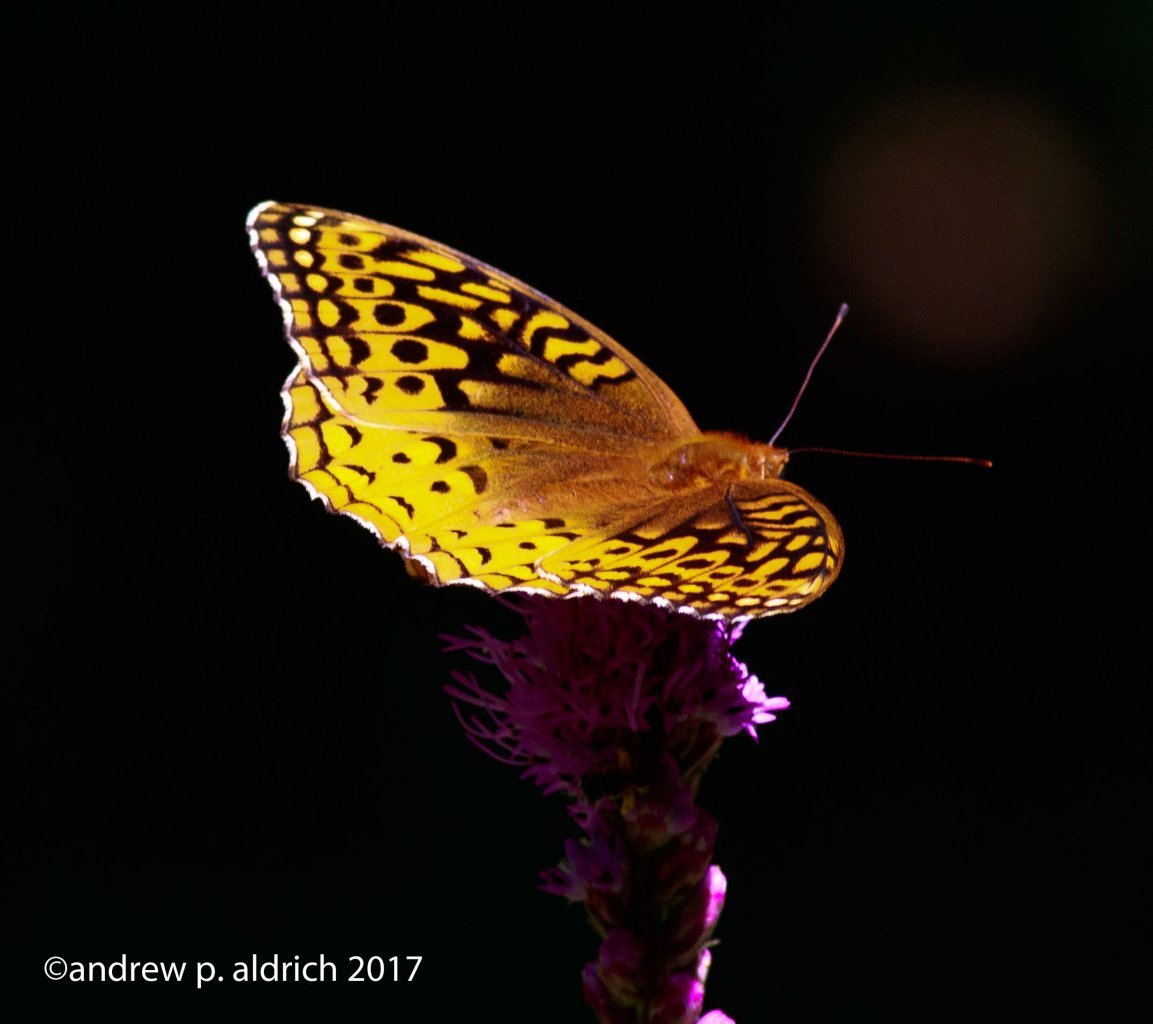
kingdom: Animalia
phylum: Arthropoda
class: Insecta
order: Lepidoptera
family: Nymphalidae
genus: Speyeria
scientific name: Speyeria cybele
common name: Great Spangled Fritillary
